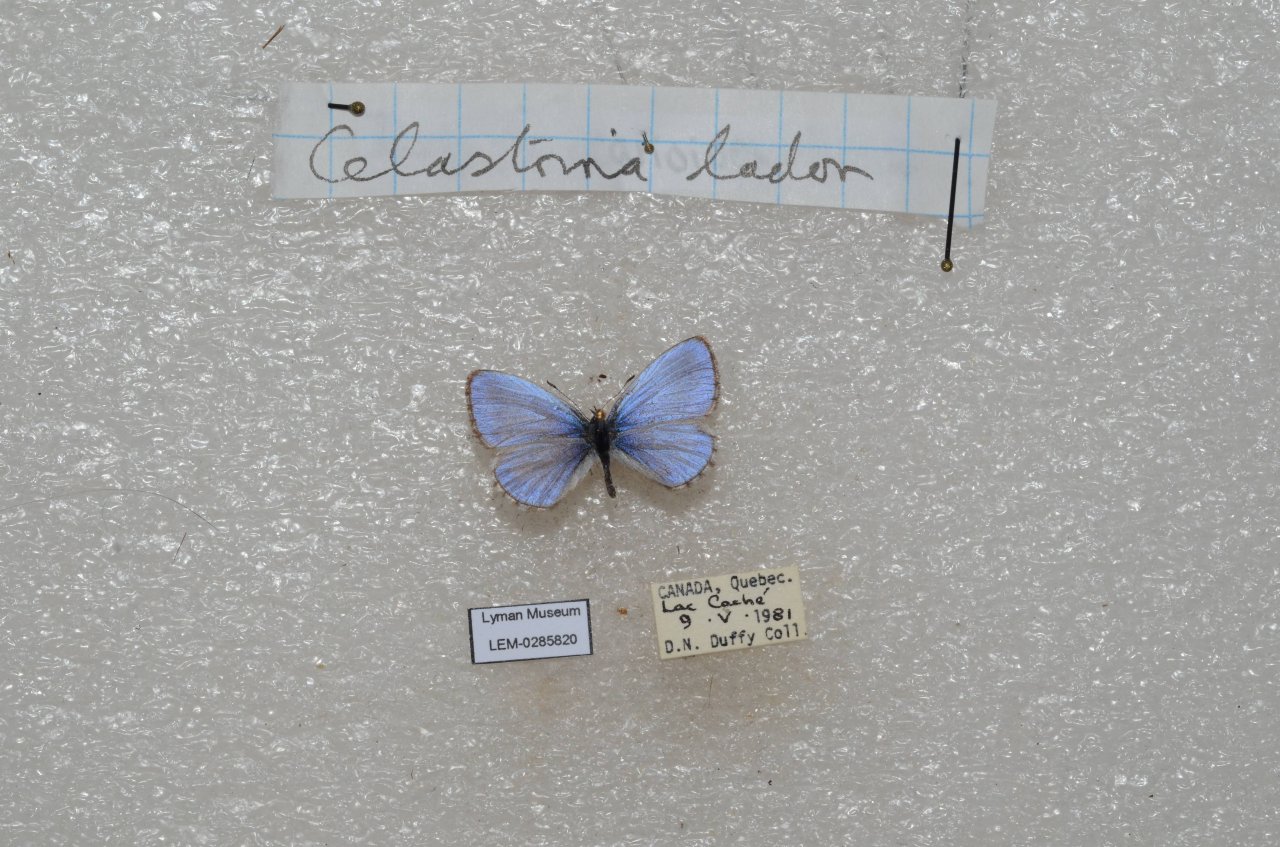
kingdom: Animalia
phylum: Arthropoda
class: Insecta
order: Lepidoptera
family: Lycaenidae
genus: Celastrina
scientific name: Celastrina lucia
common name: Northern Spring Azure
